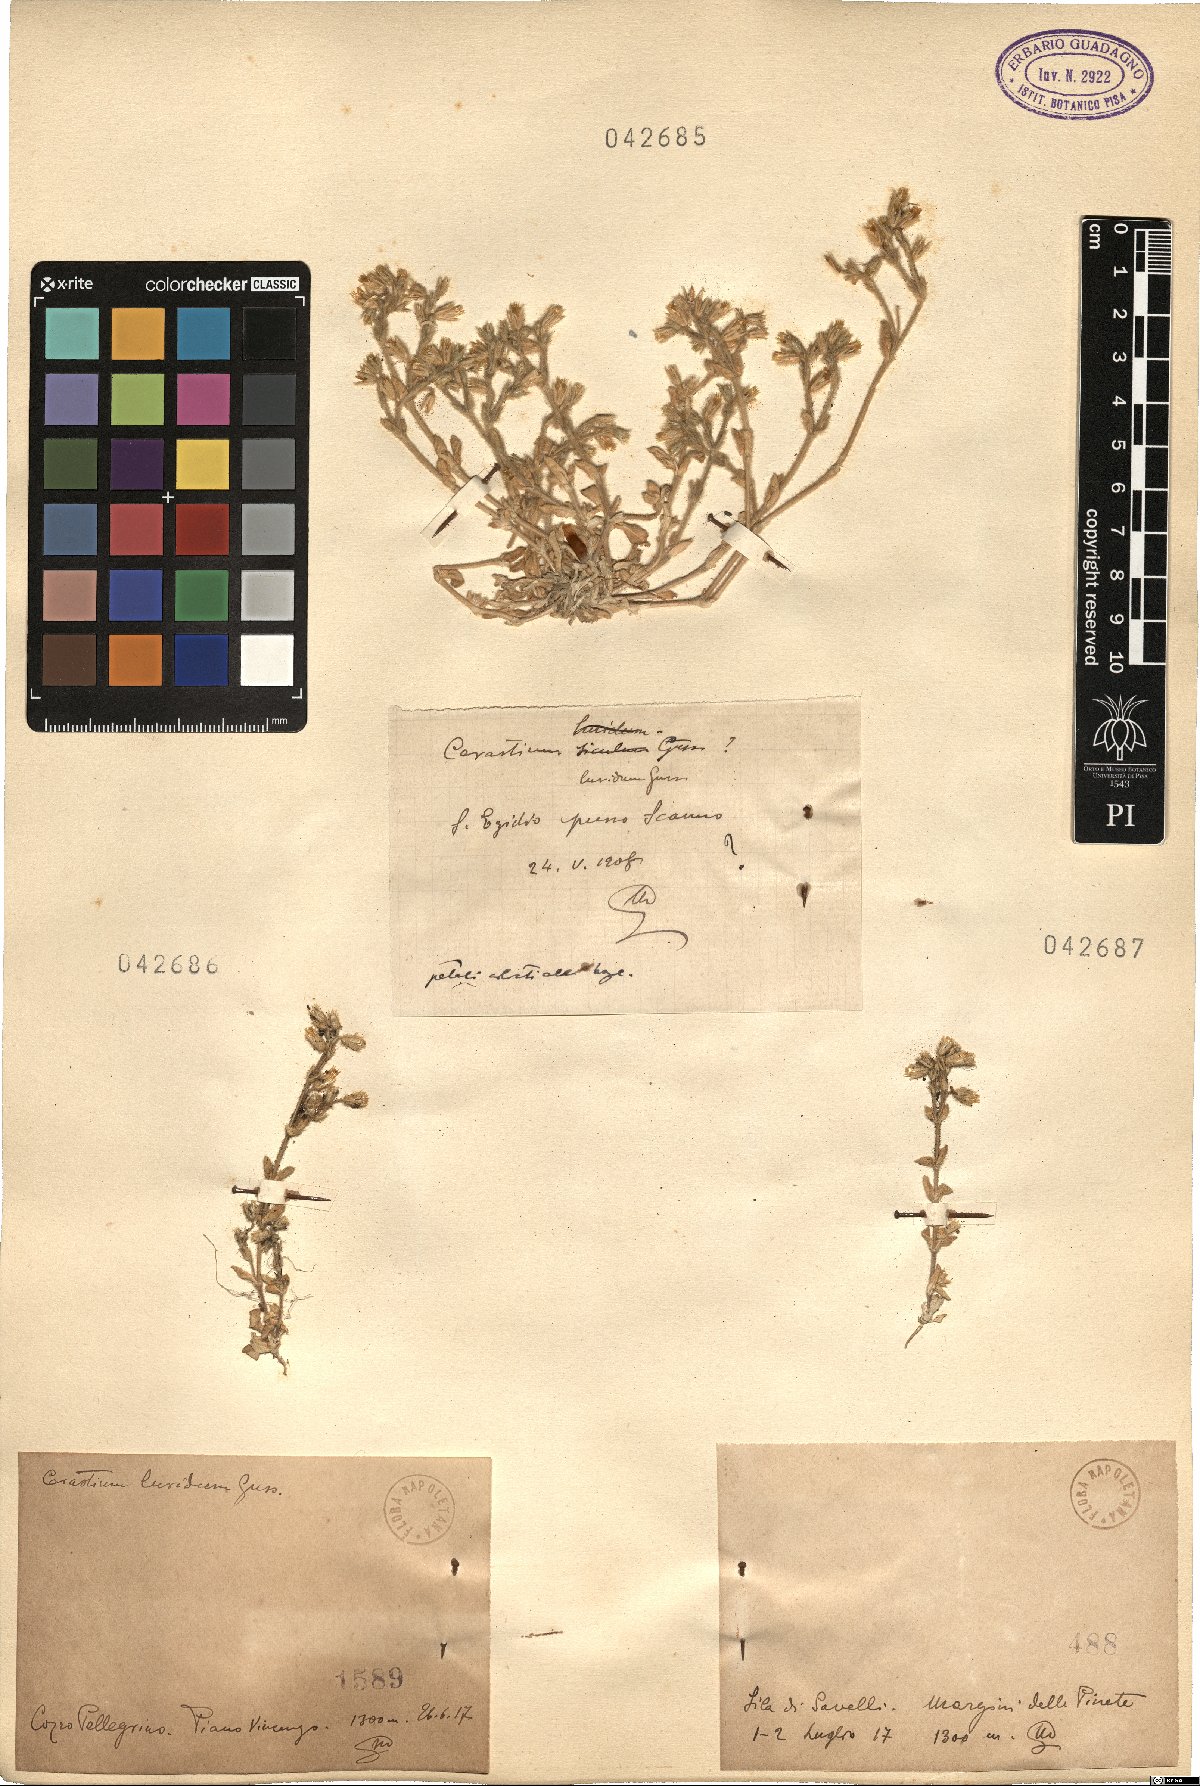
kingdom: Plantae
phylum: Tracheophyta
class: Magnoliopsida
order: Caryophyllales
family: Caryophyllaceae
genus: Cerastium
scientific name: Cerastium brachypetalum
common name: Grey mouse-ear
